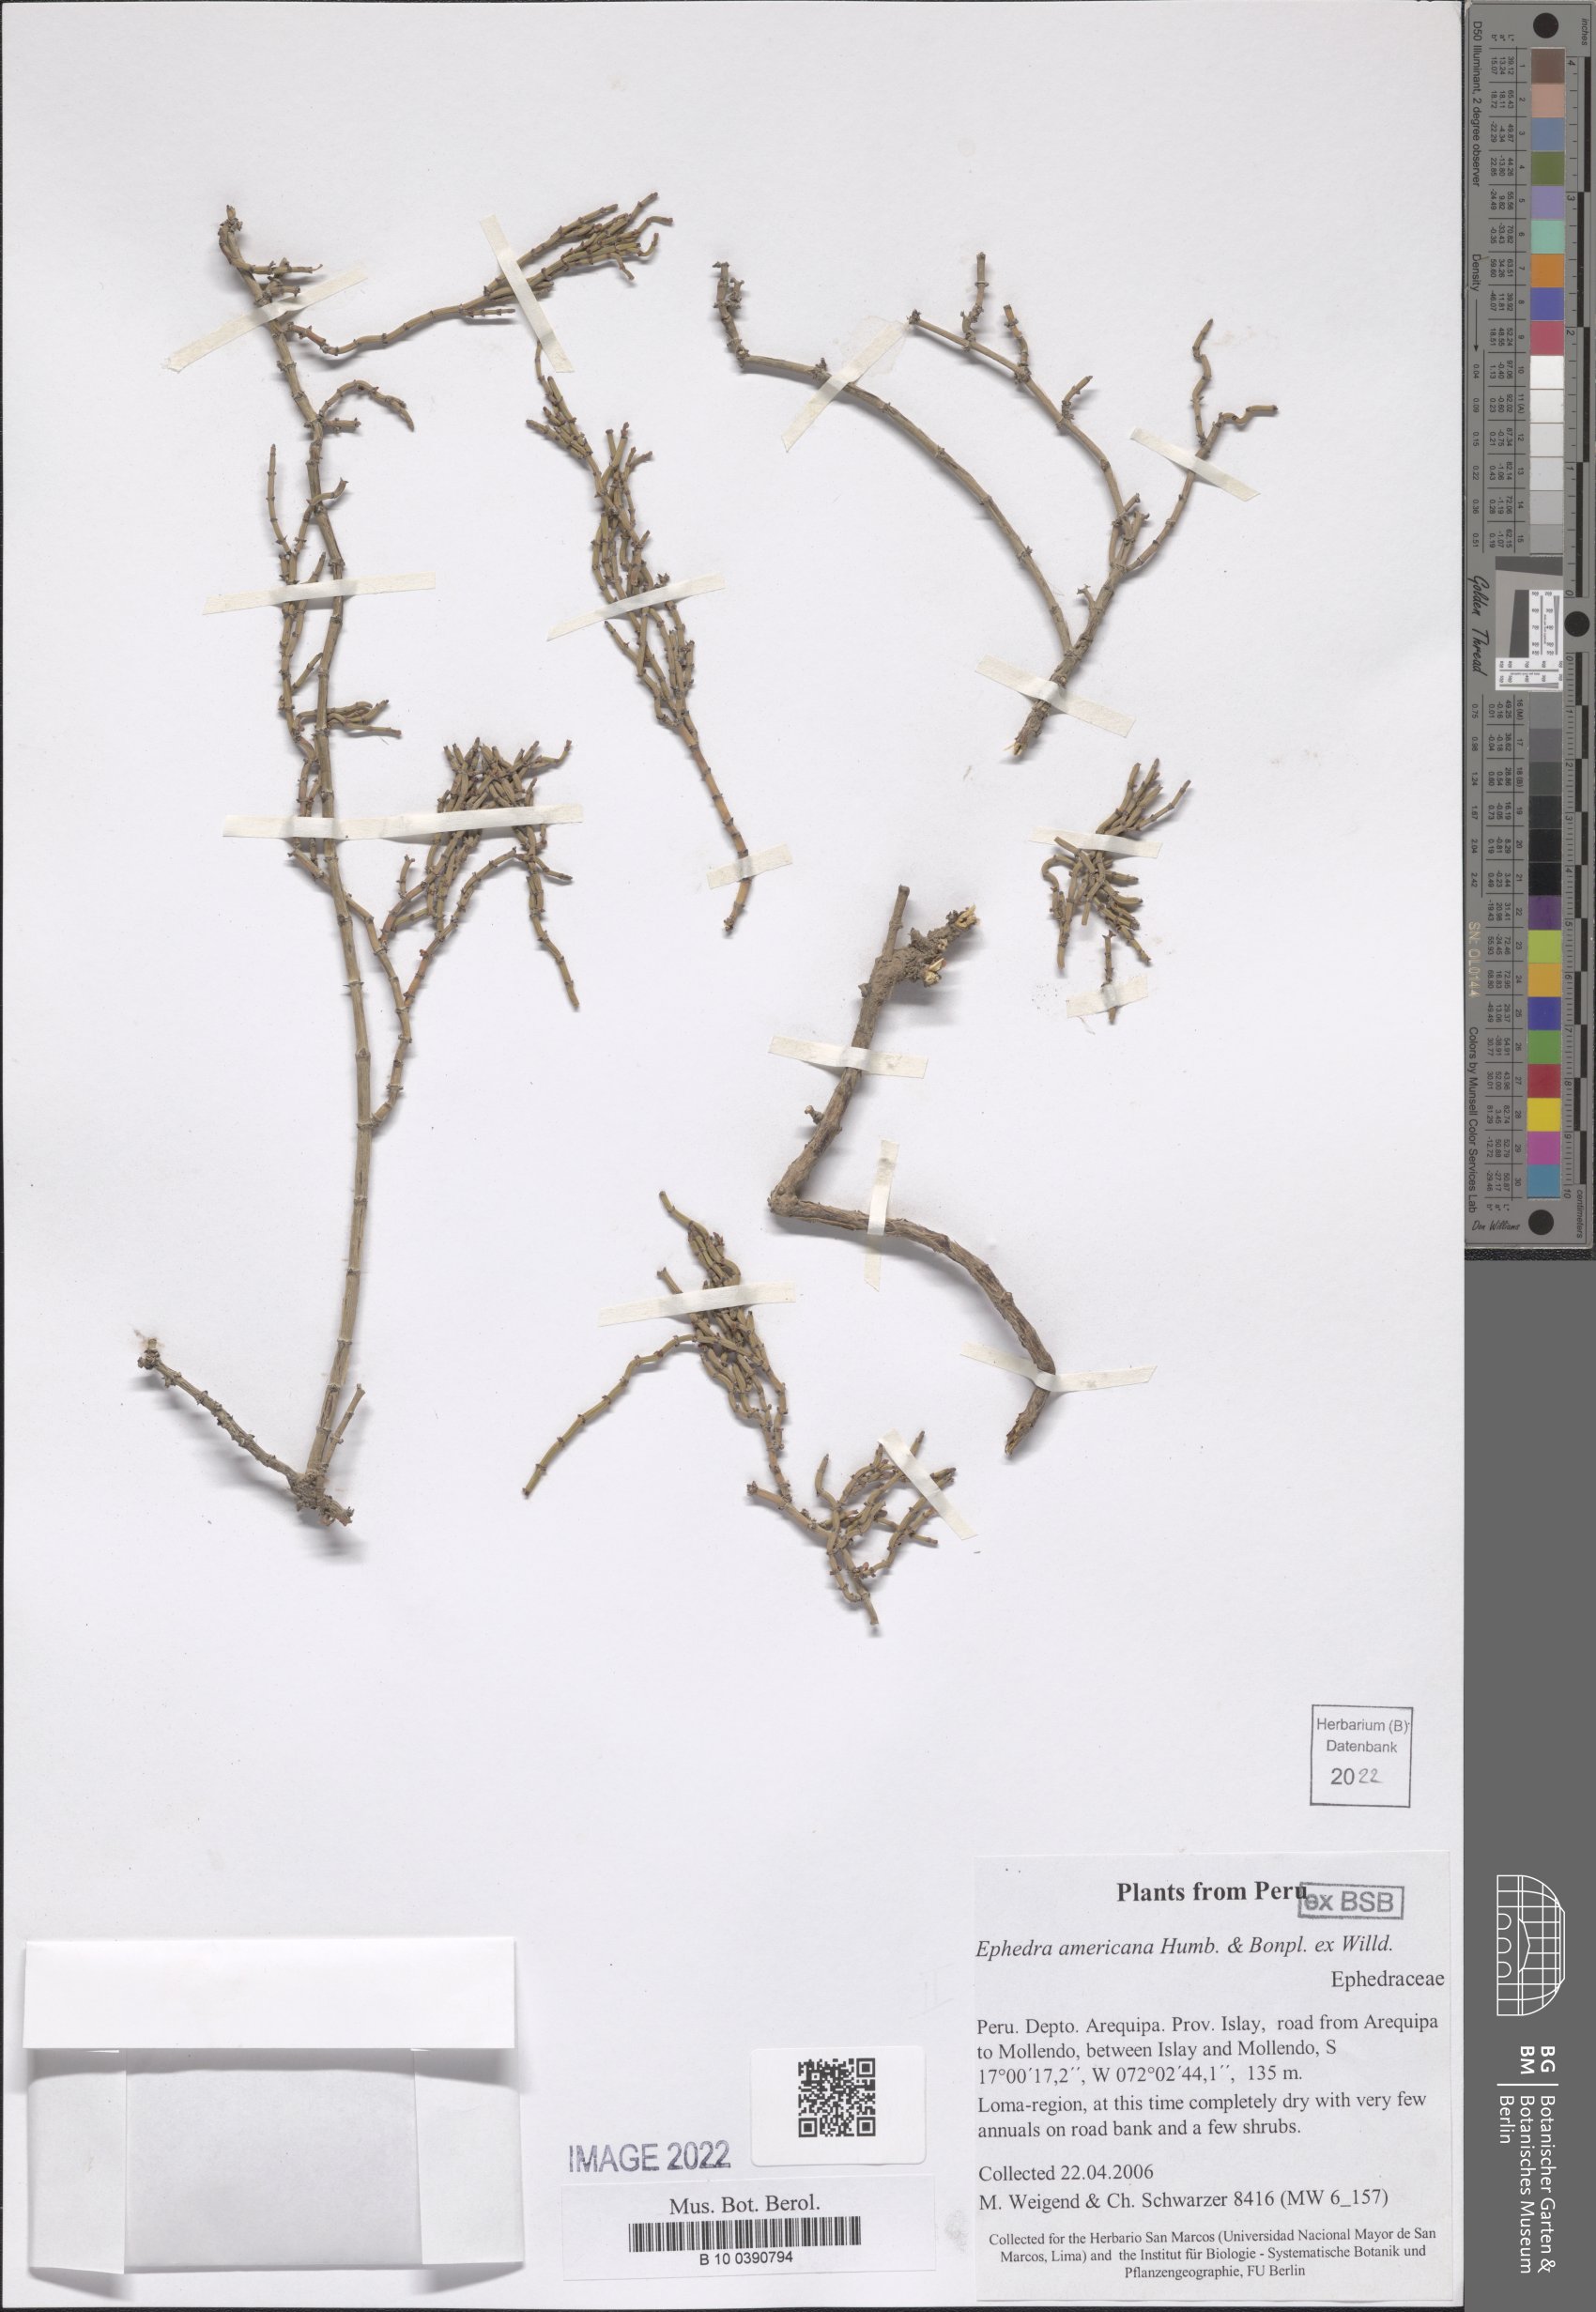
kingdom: Plantae
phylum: Tracheophyta
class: Gnetopsida
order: Ephedrales
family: Ephedraceae
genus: Ephedra
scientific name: Ephedra americana
